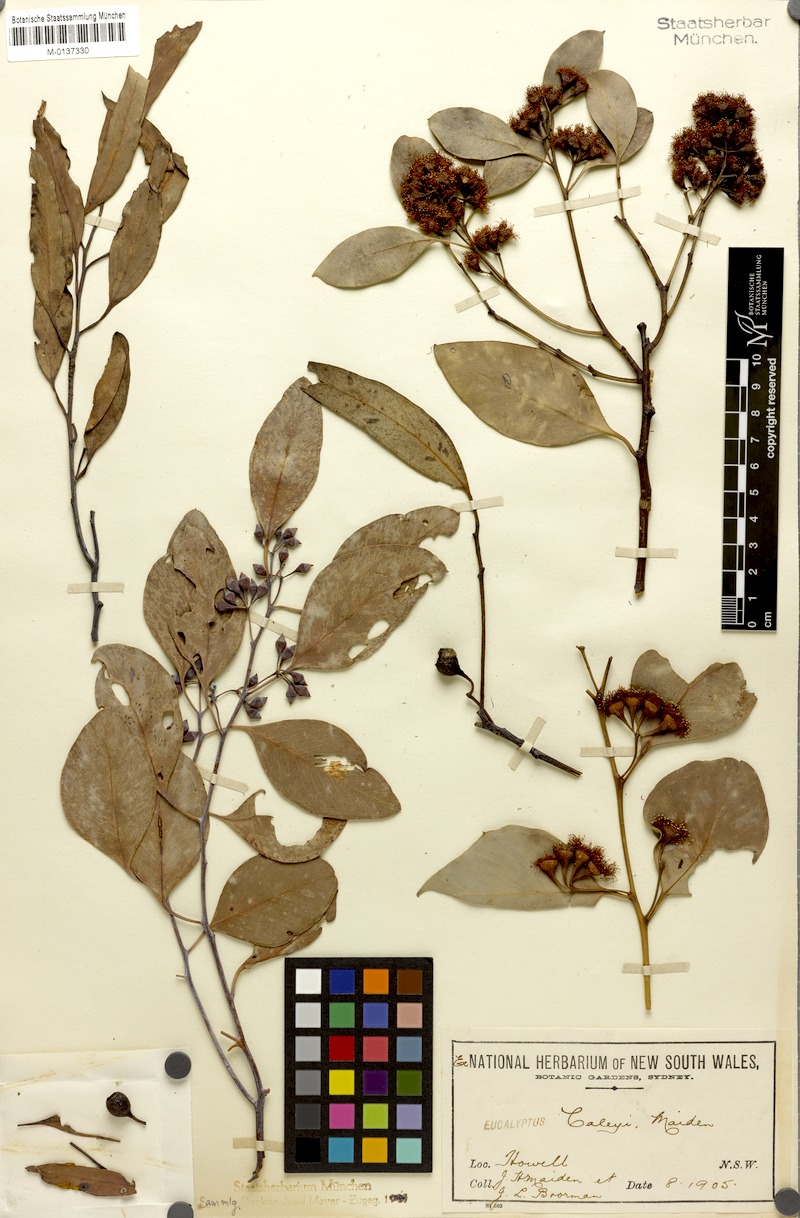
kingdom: Plantae
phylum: Tracheophyta
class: Magnoliopsida
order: Myrtales
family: Myrtaceae
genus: Eucalyptus
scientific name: Eucalyptus caleyi
